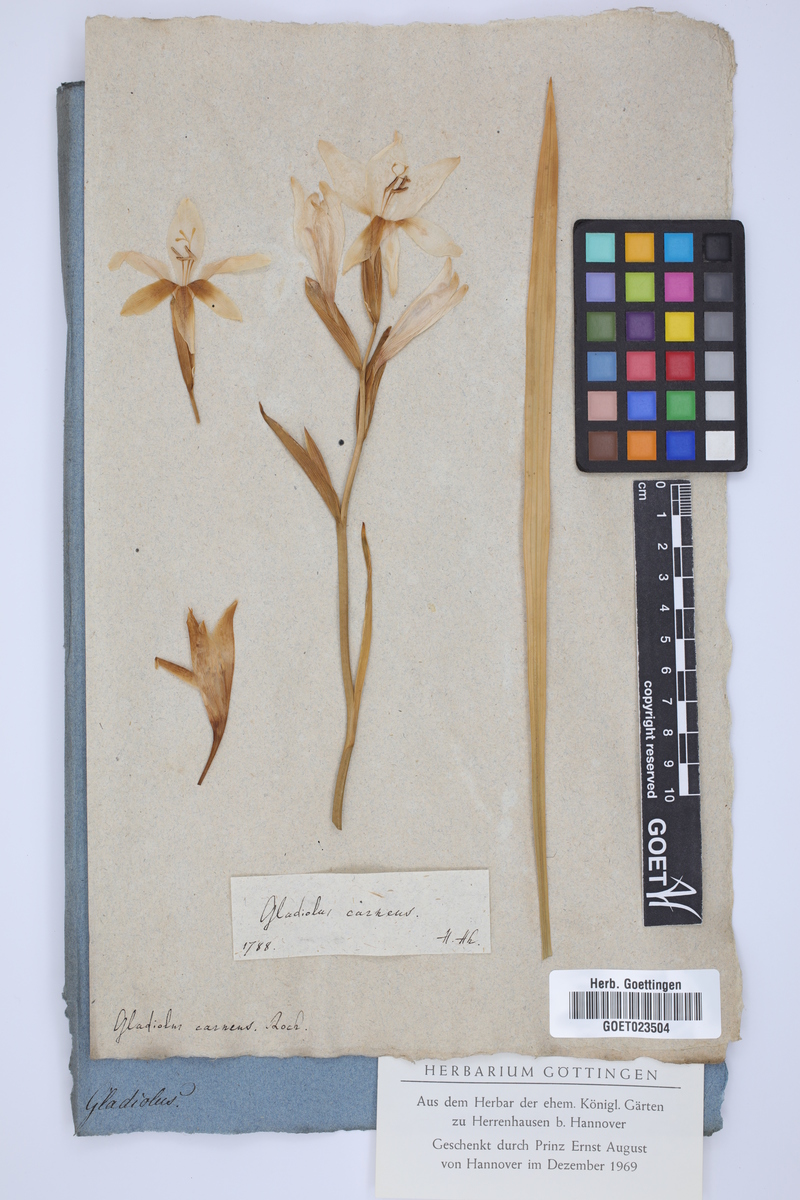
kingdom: Plantae
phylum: Tracheophyta
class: Liliopsida
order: Asparagales
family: Iridaceae
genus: Gladiolus
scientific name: Gladiolus carneus
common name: Painted-lady
